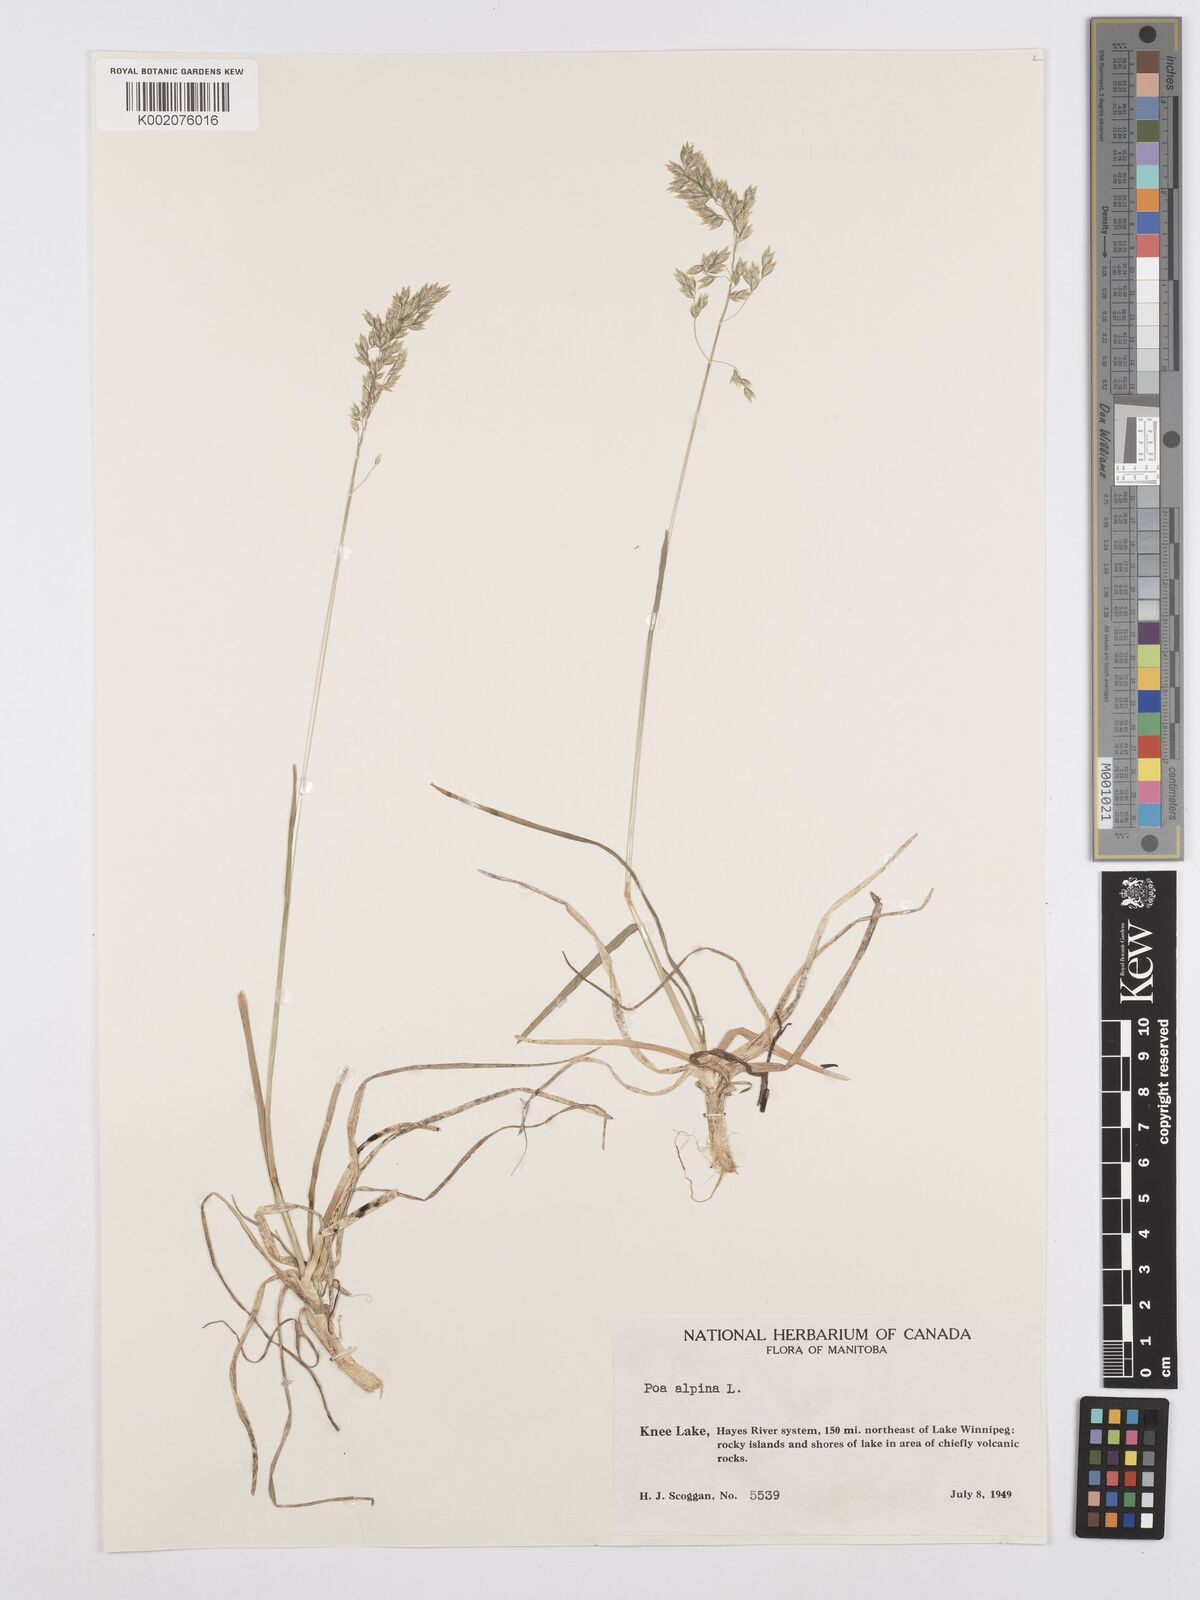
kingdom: Plantae
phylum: Tracheophyta
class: Liliopsida
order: Poales
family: Poaceae
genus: Poa
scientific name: Poa alpina
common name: Alpine bluegrass
